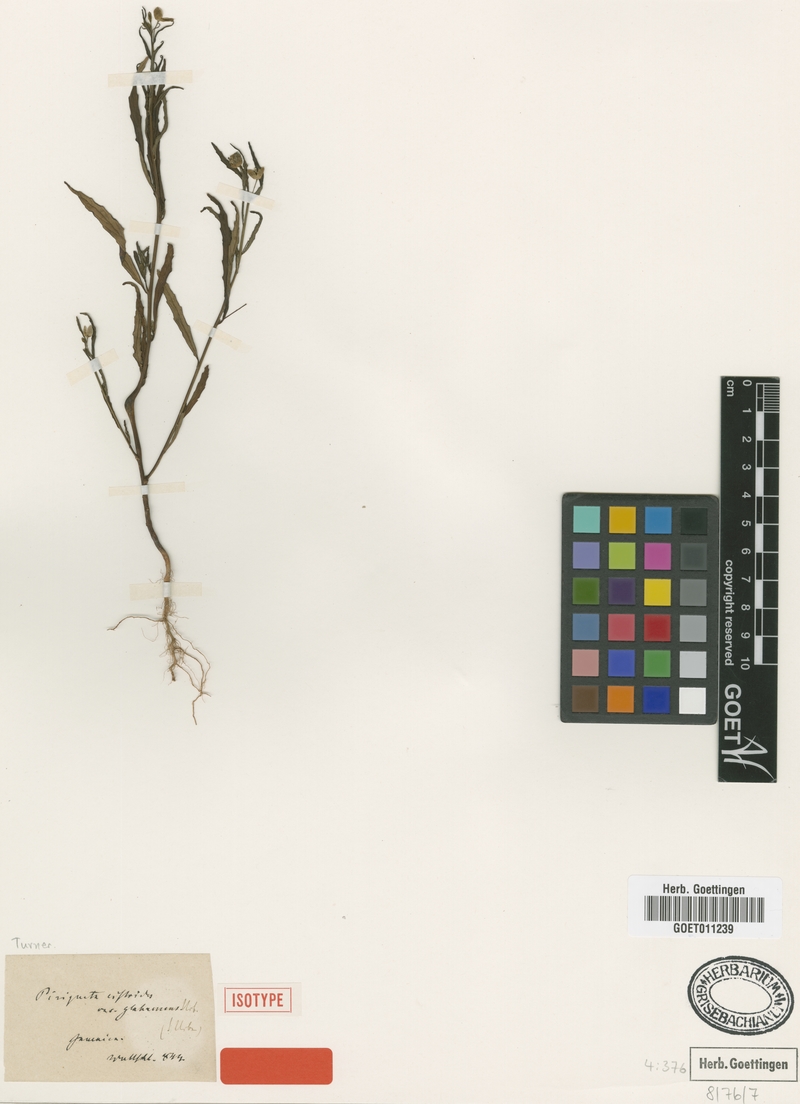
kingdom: Plantae
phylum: Tracheophyta
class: Magnoliopsida
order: Malpighiales
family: Turneraceae
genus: Piriqueta
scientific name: Piriqueta cistoides
